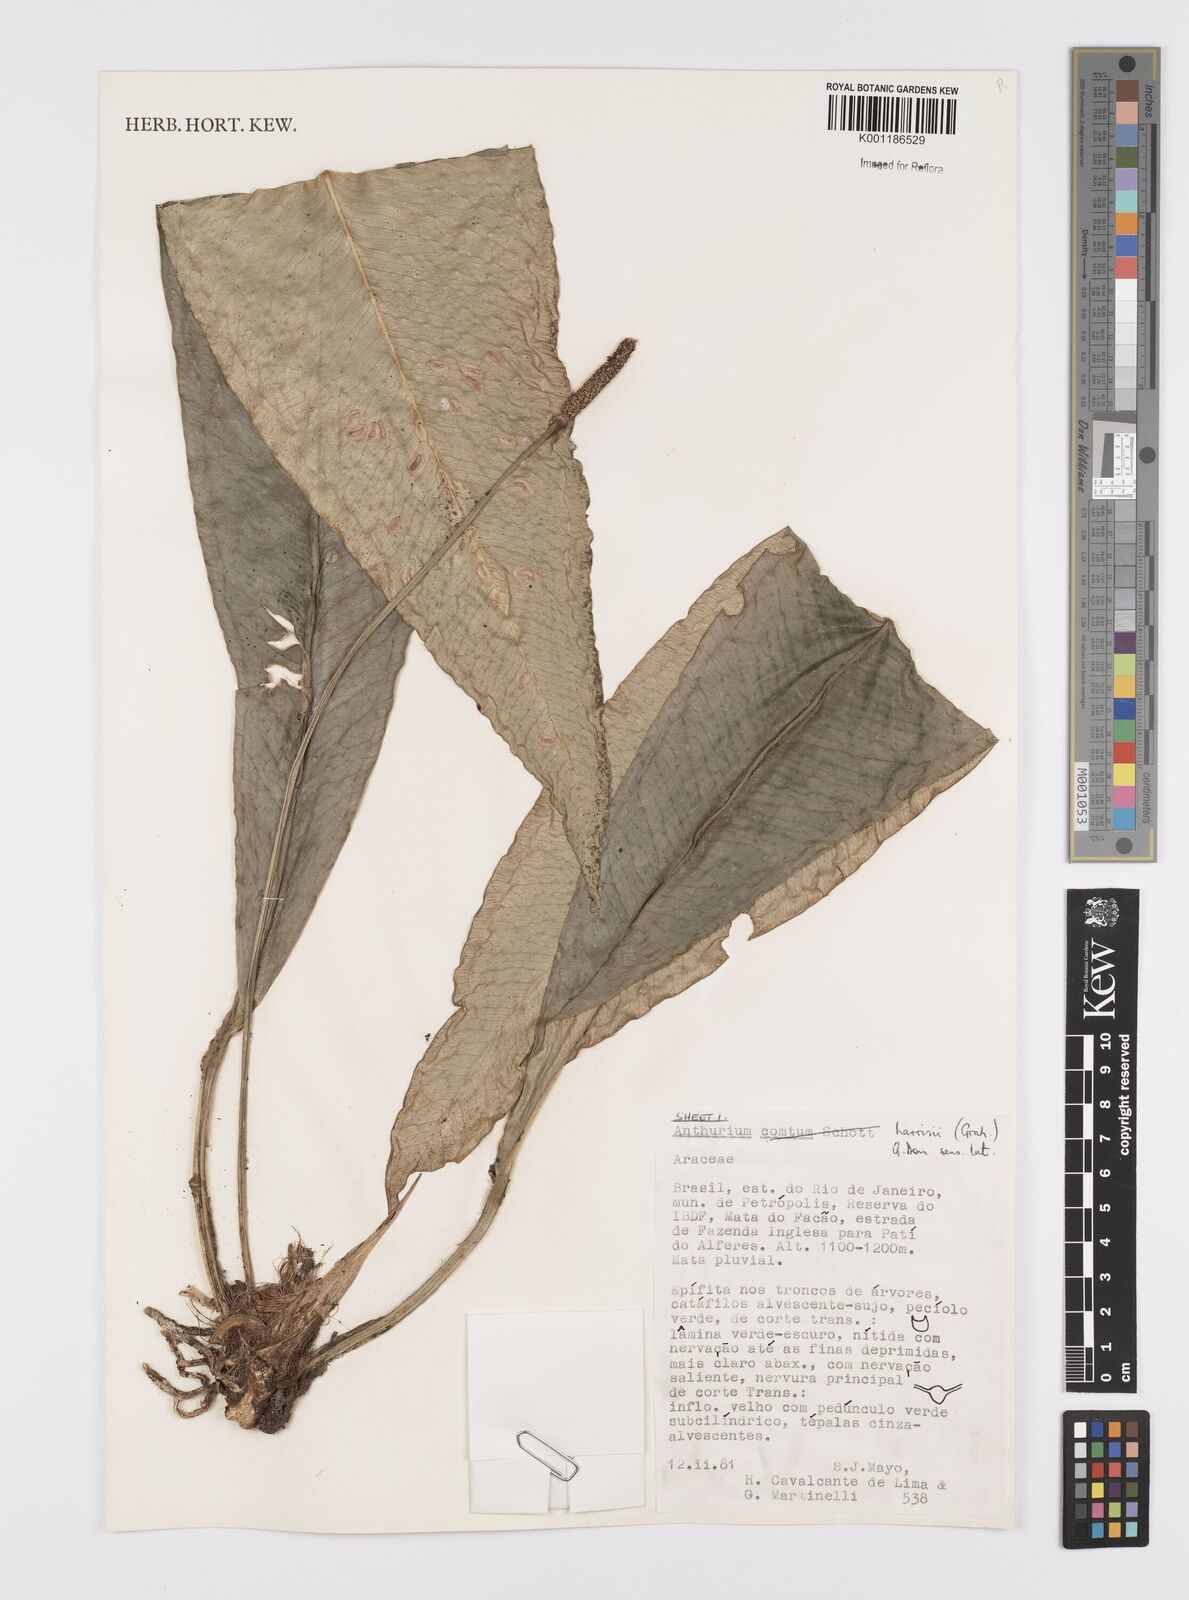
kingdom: Plantae
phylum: Tracheophyta
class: Liliopsida
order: Alismatales
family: Araceae
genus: Anthurium
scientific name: Anthurium harrisii
